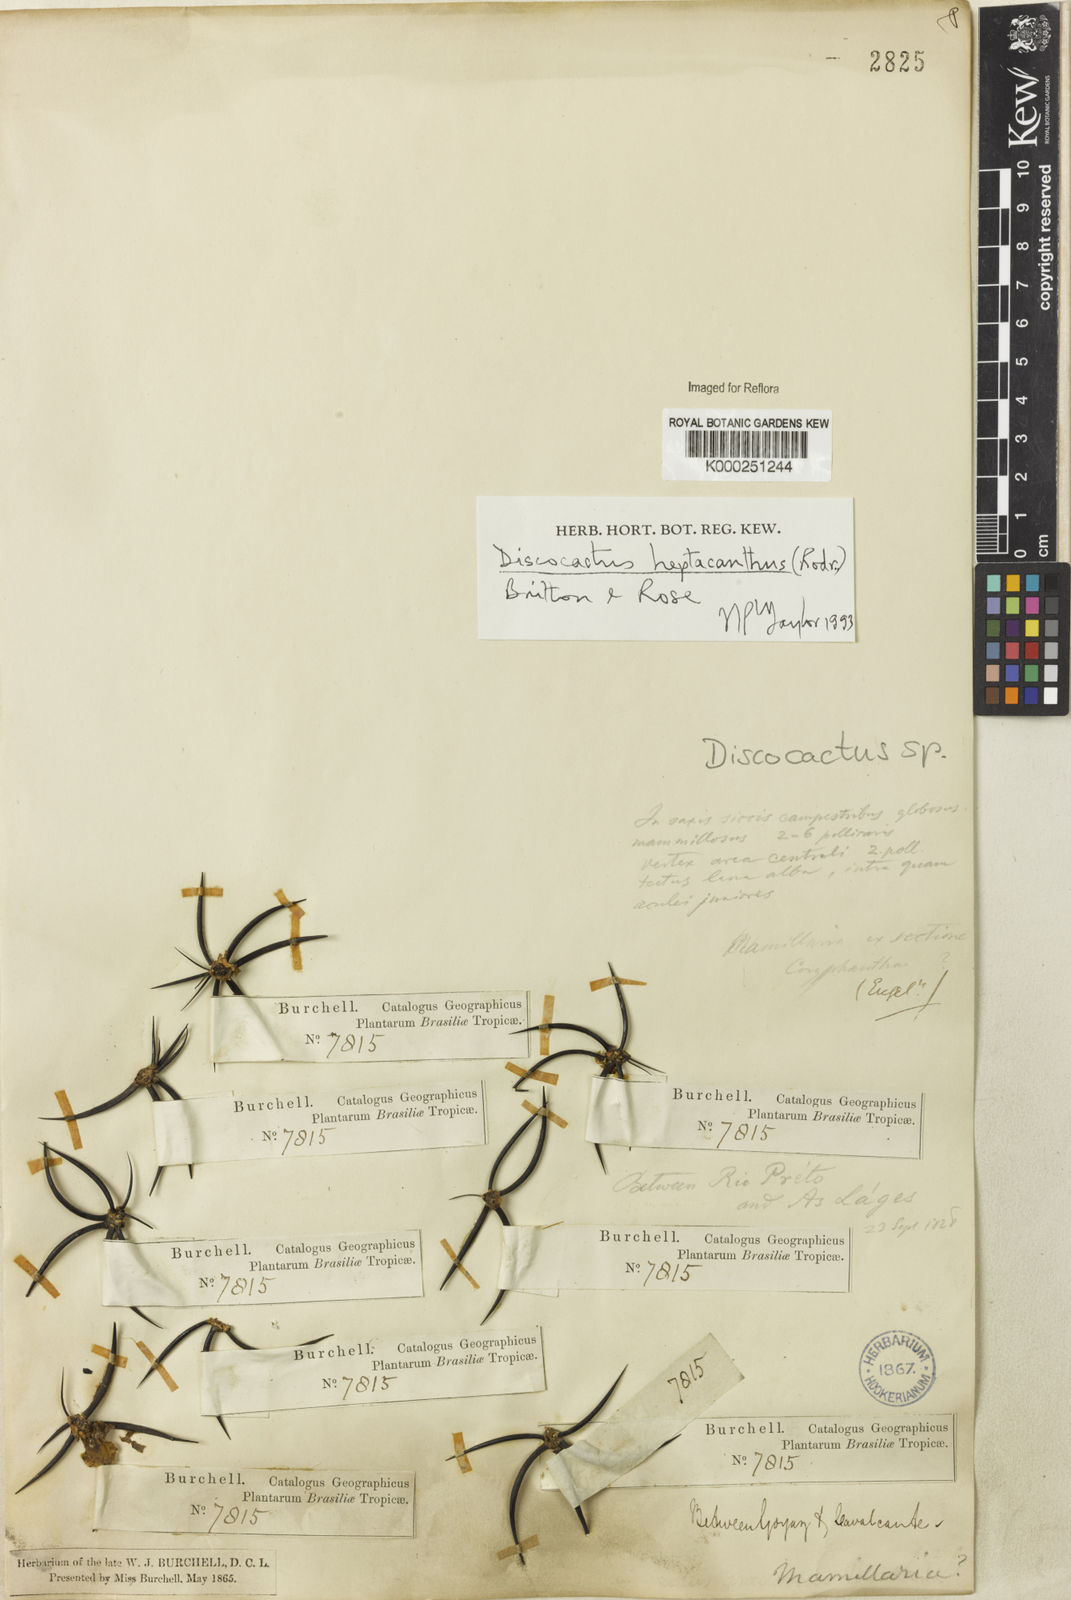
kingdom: Plantae
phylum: Tracheophyta
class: Magnoliopsida
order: Caryophyllales
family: Cactaceae
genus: Discocactus
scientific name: Discocactus heptacanthus
